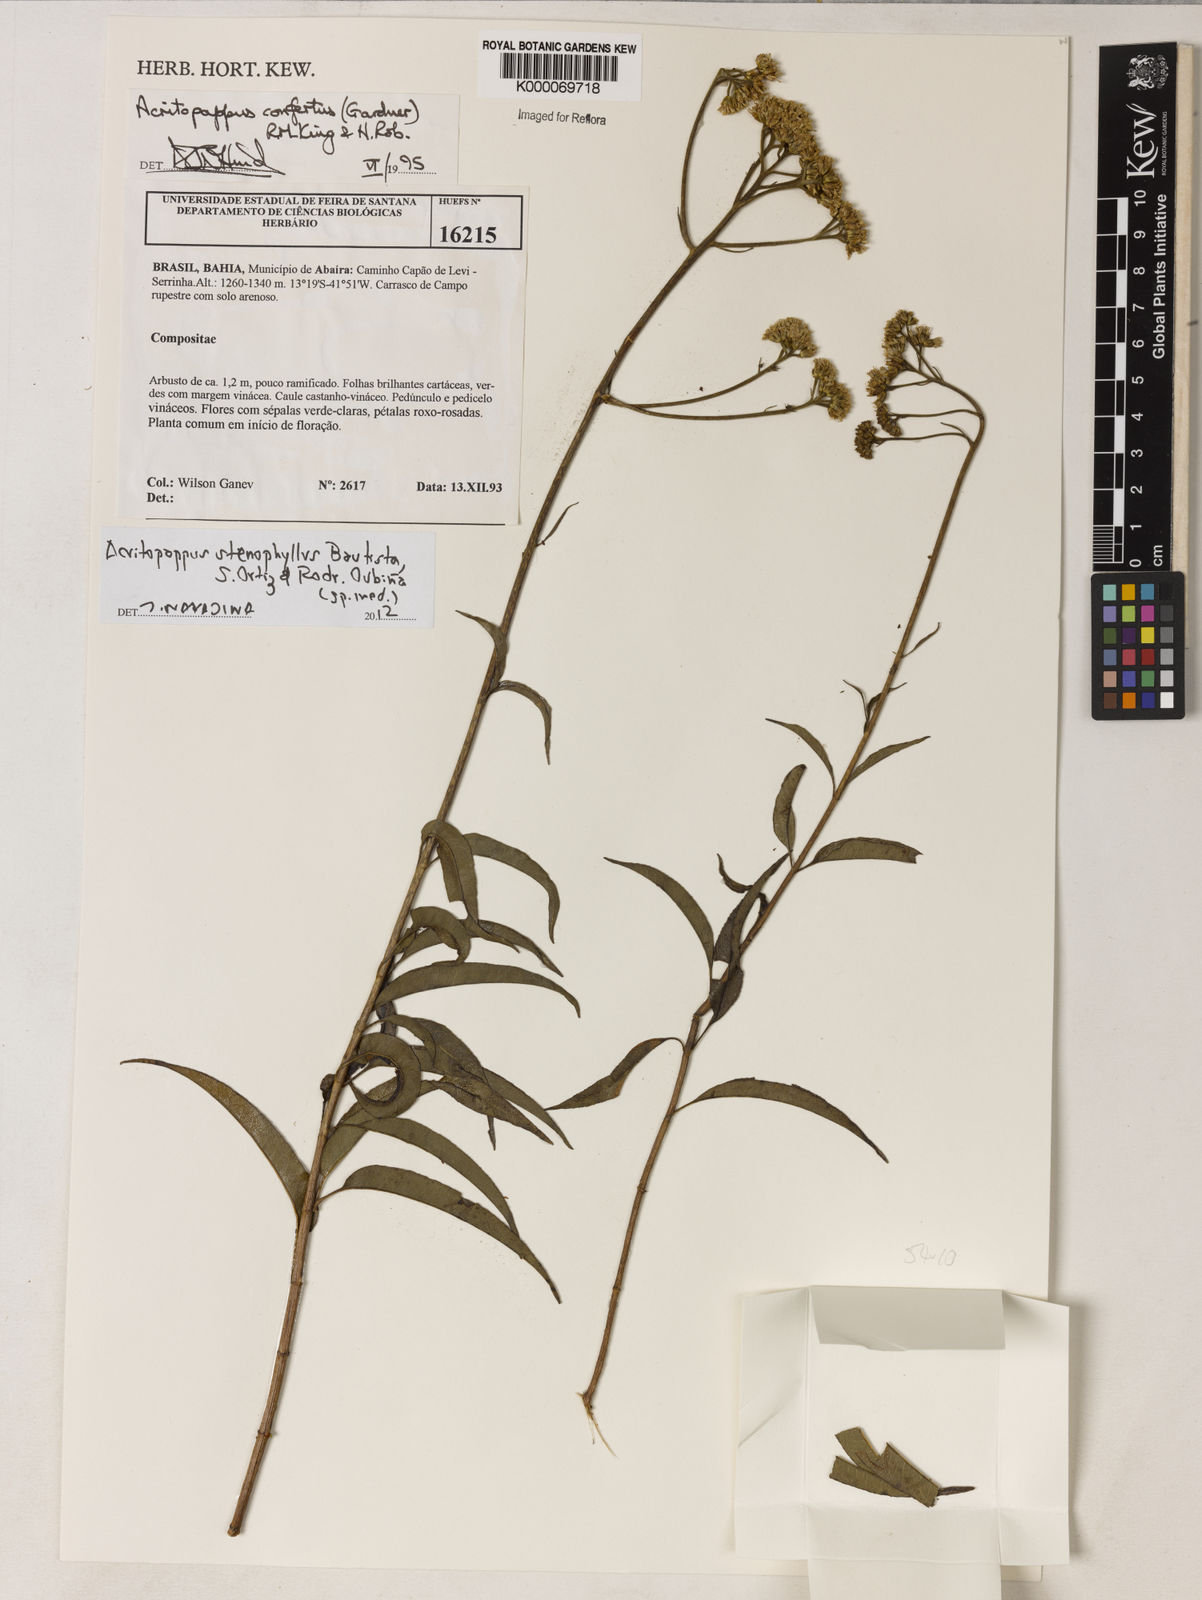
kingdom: Plantae
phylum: Tracheophyta
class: Magnoliopsida
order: Asterales
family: Asteraceae
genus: Acritopappus
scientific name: Acritopappus confertus
